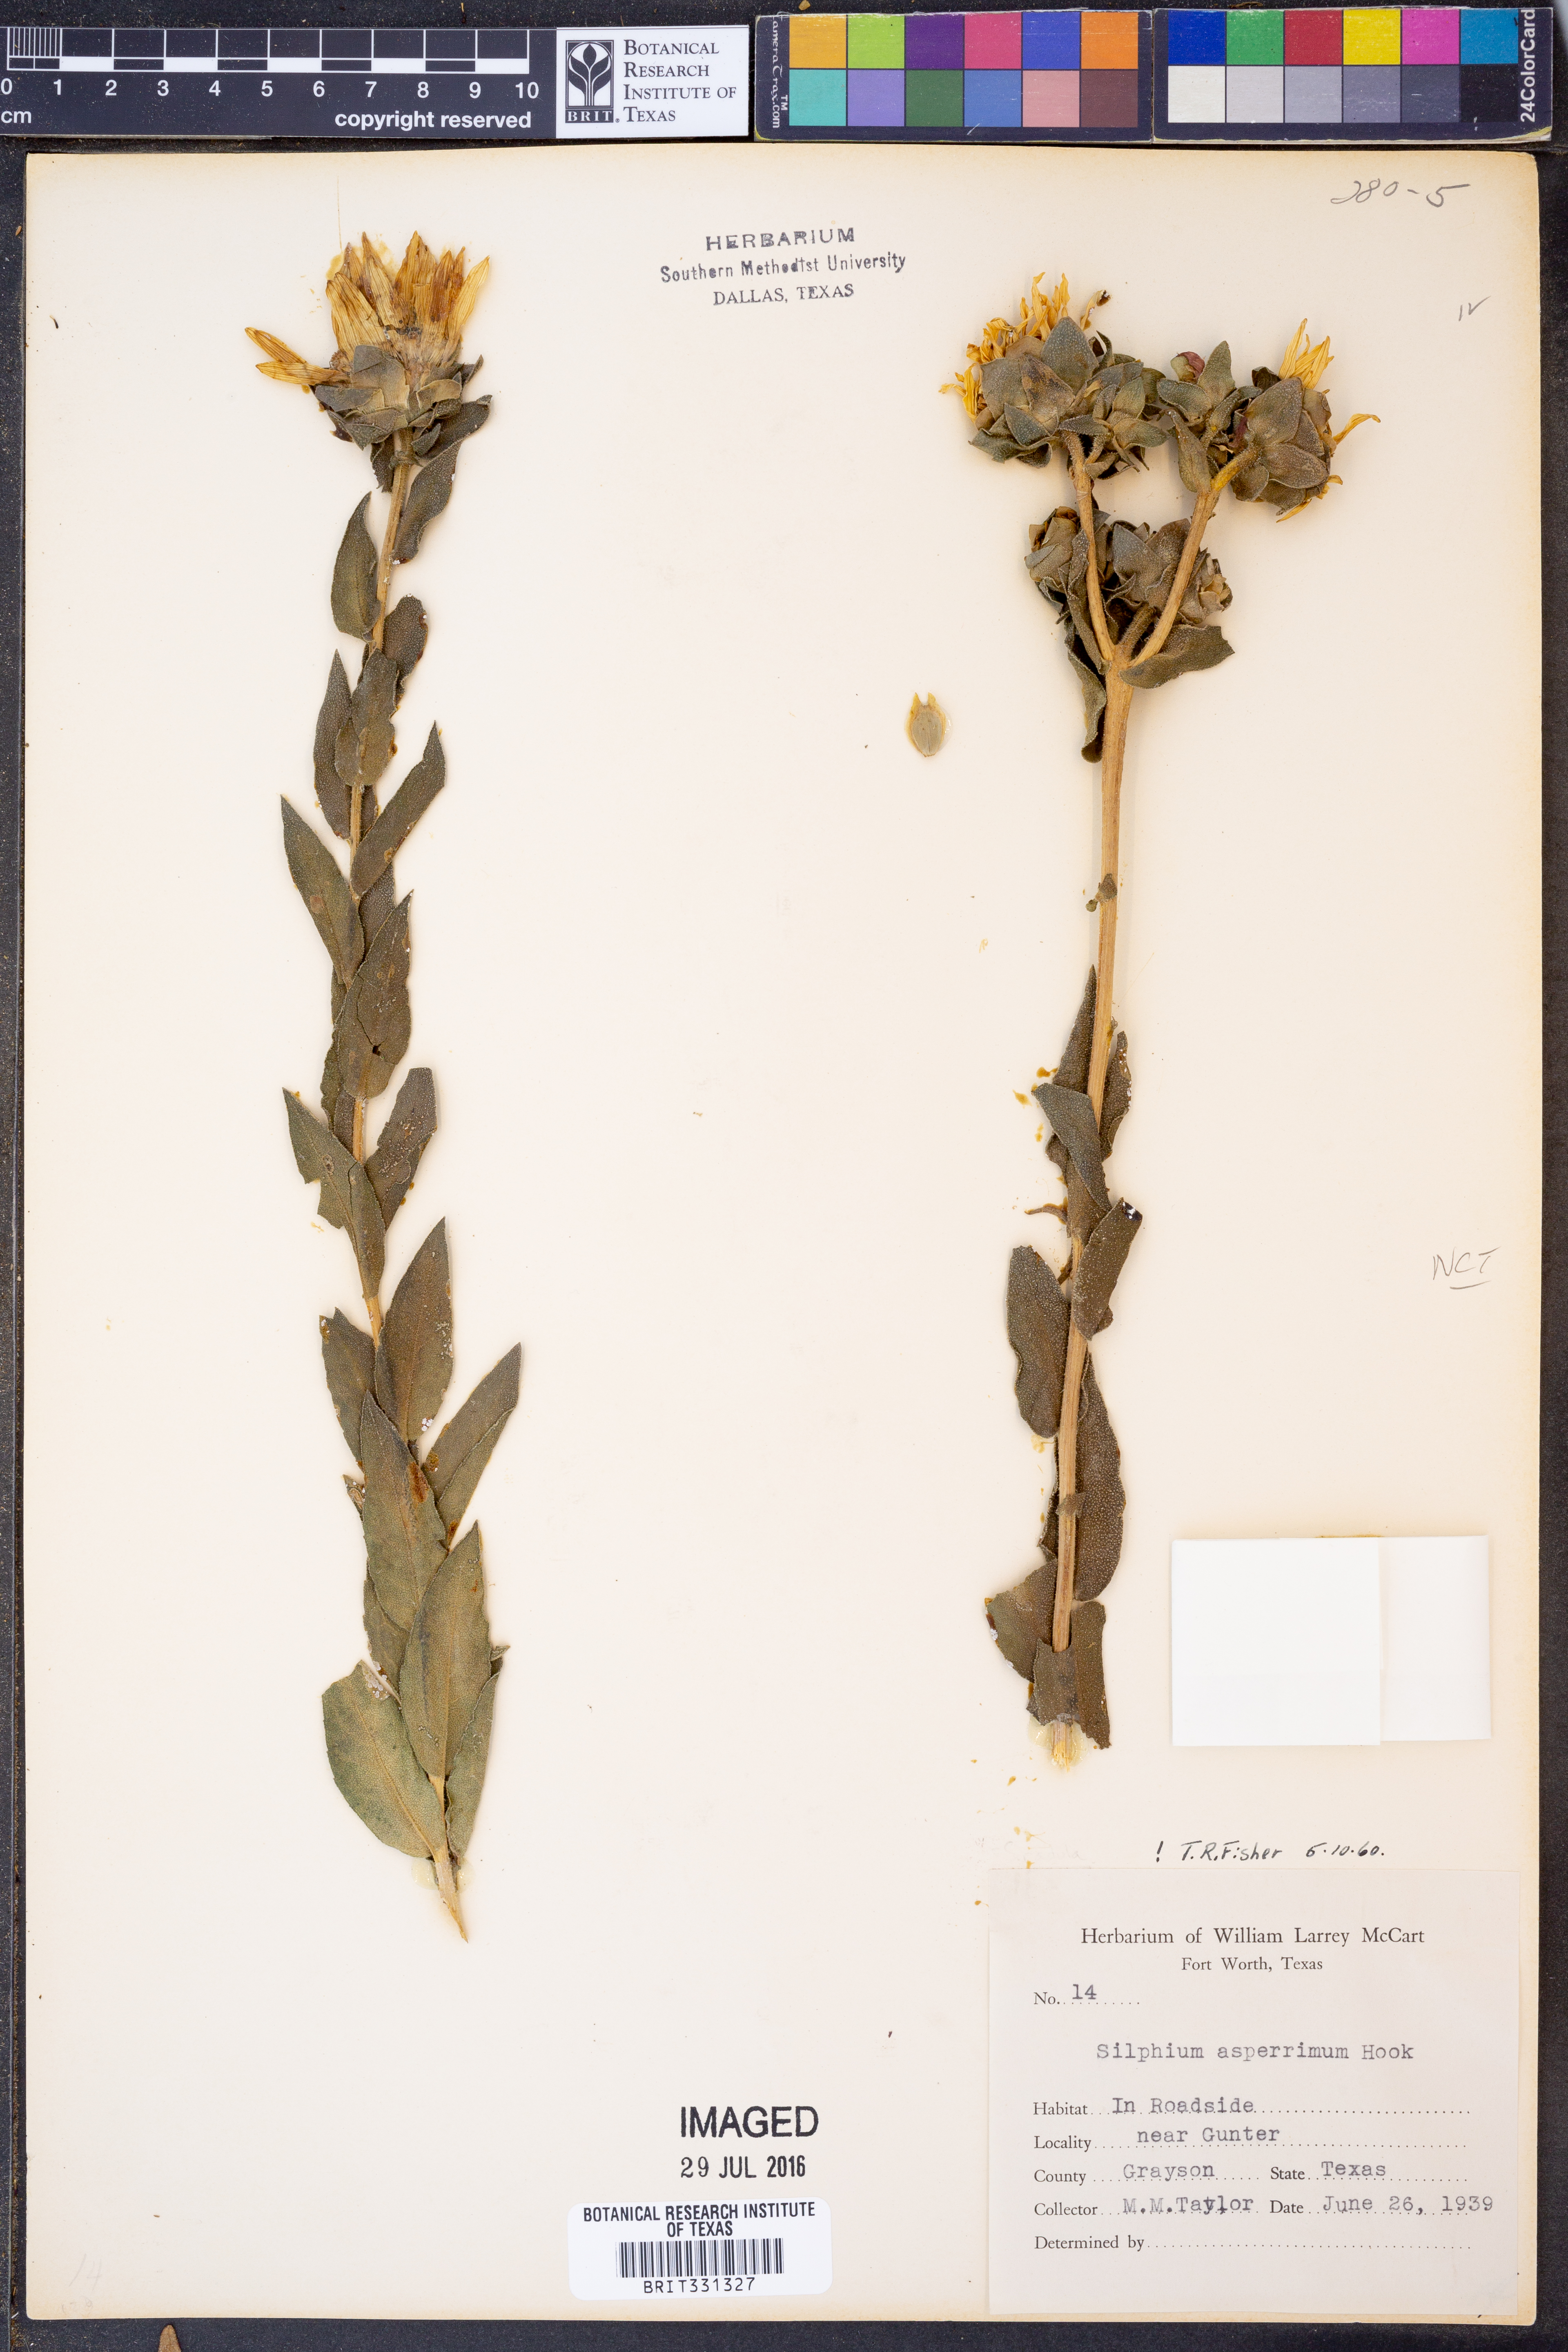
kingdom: Plantae
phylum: Tracheophyta
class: Magnoliopsida
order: Asterales
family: Asteraceae
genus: Silphium
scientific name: Silphium asperrimum
